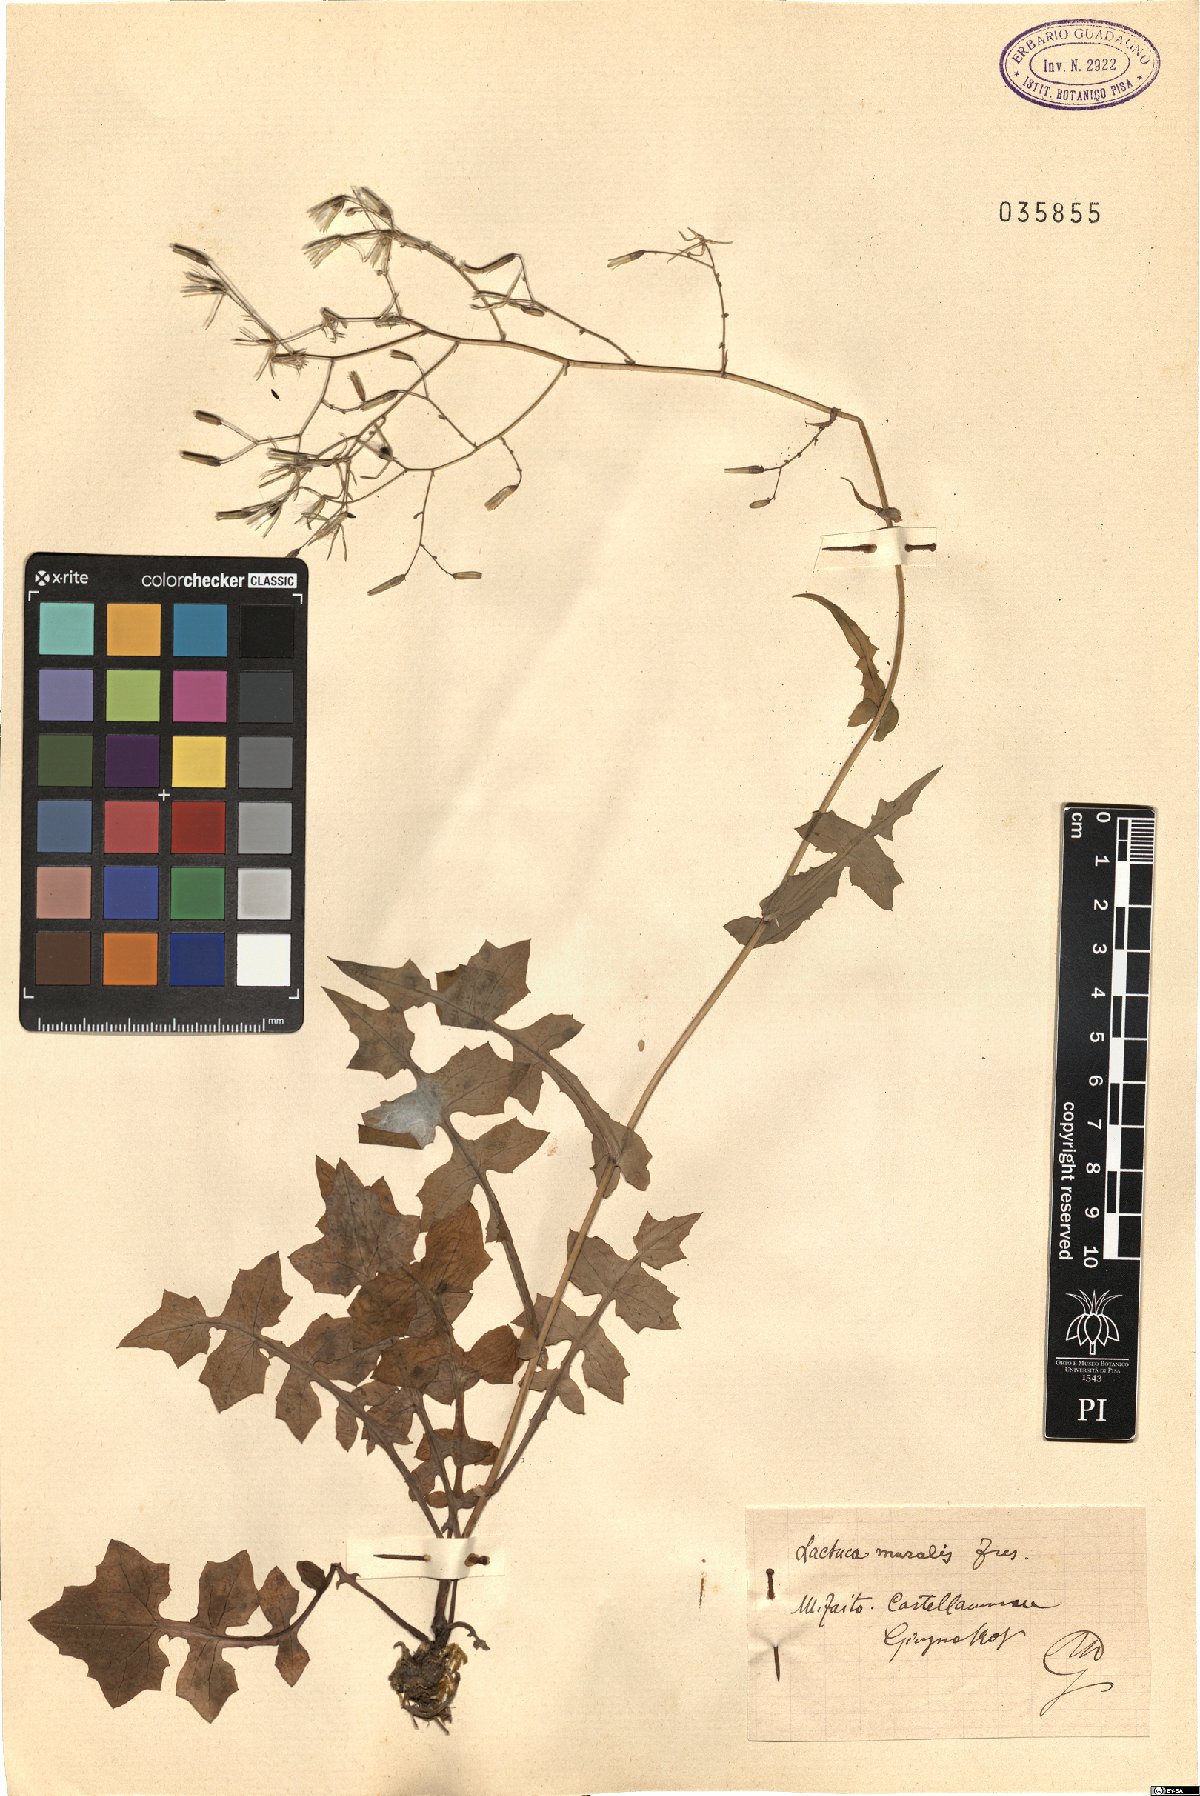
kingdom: Plantae
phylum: Tracheophyta
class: Magnoliopsida
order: Asterales
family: Asteraceae
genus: Mycelis
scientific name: Mycelis muralis
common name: Wall lettuce
